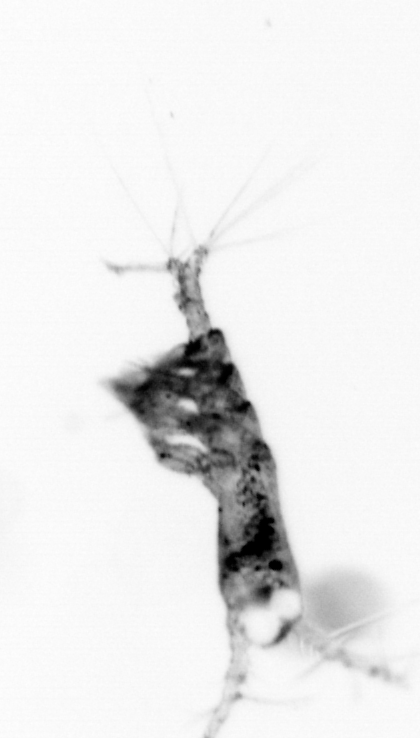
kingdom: Animalia
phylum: Arthropoda
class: Copepoda
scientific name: Copepoda
